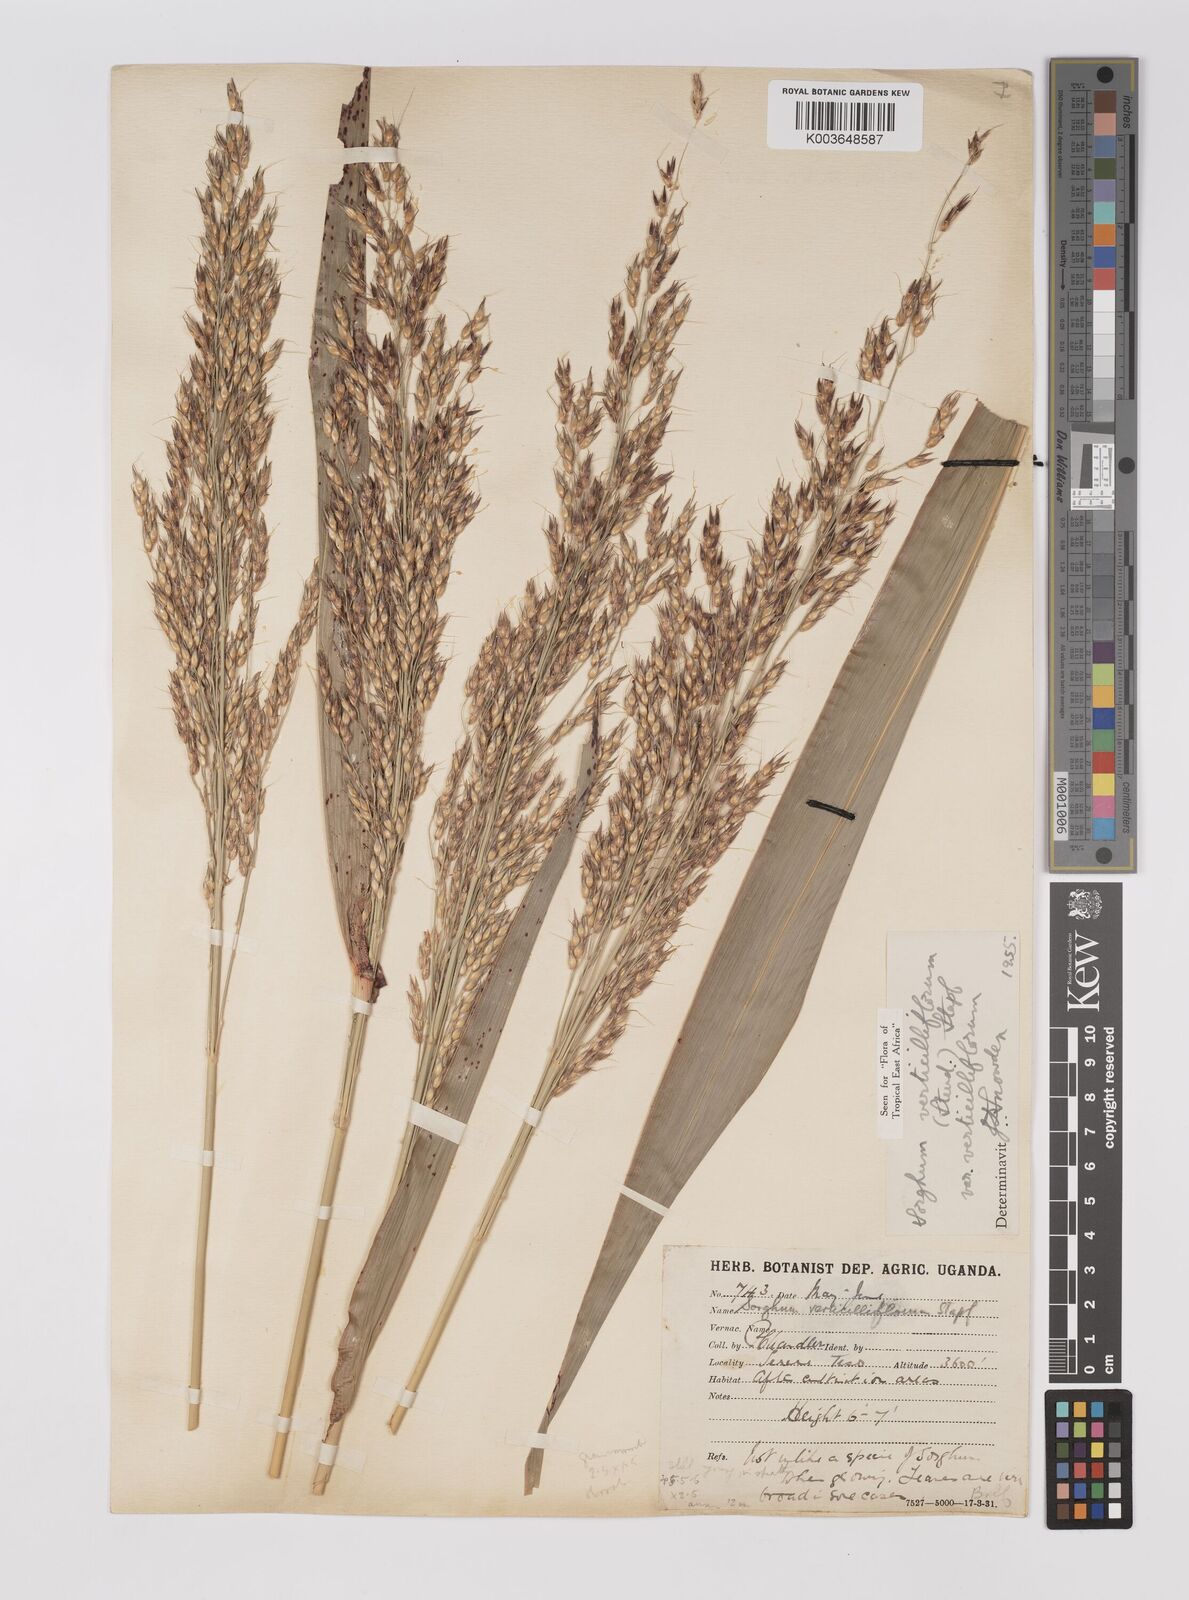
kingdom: Plantae
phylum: Tracheophyta
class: Liliopsida
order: Poales
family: Poaceae
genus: Sorghum
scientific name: Sorghum arundinaceum
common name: Sorghum
